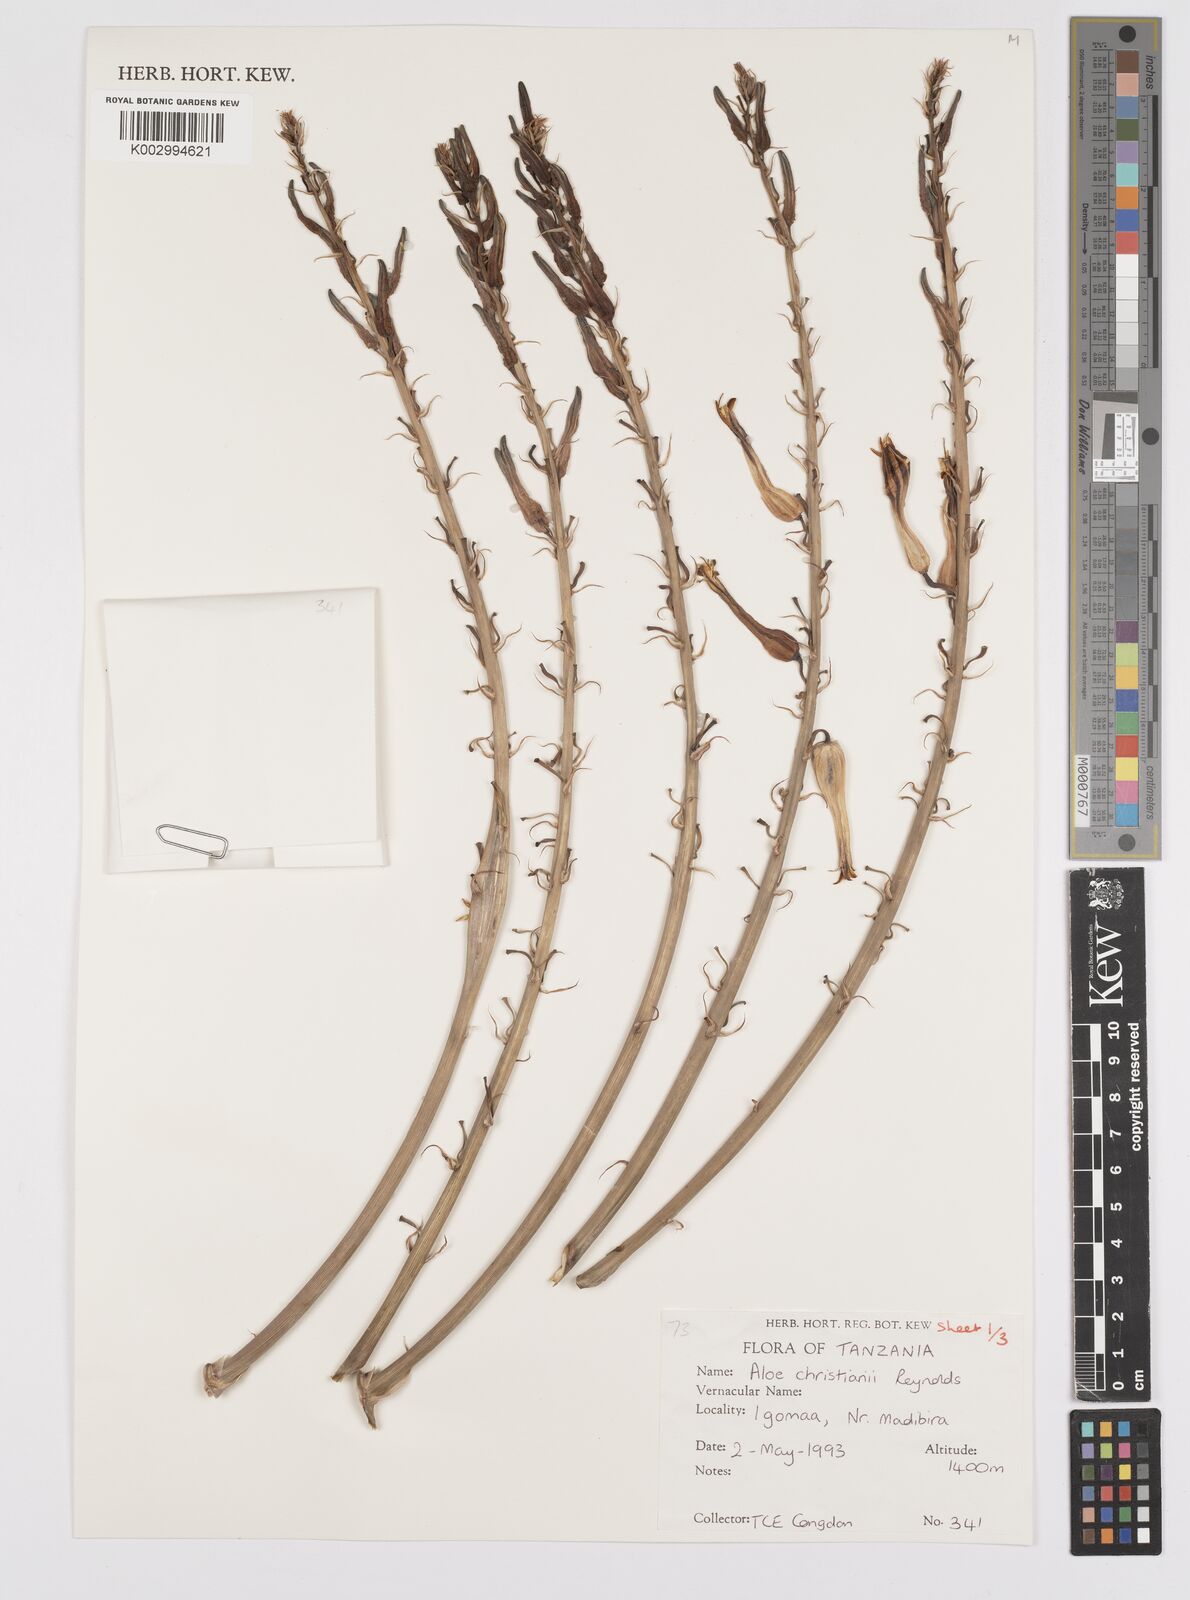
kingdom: Plantae
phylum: Tracheophyta
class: Liliopsida
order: Asparagales
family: Asphodelaceae
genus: Aloe
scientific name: Aloe christianii
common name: Basil christian's aloe
